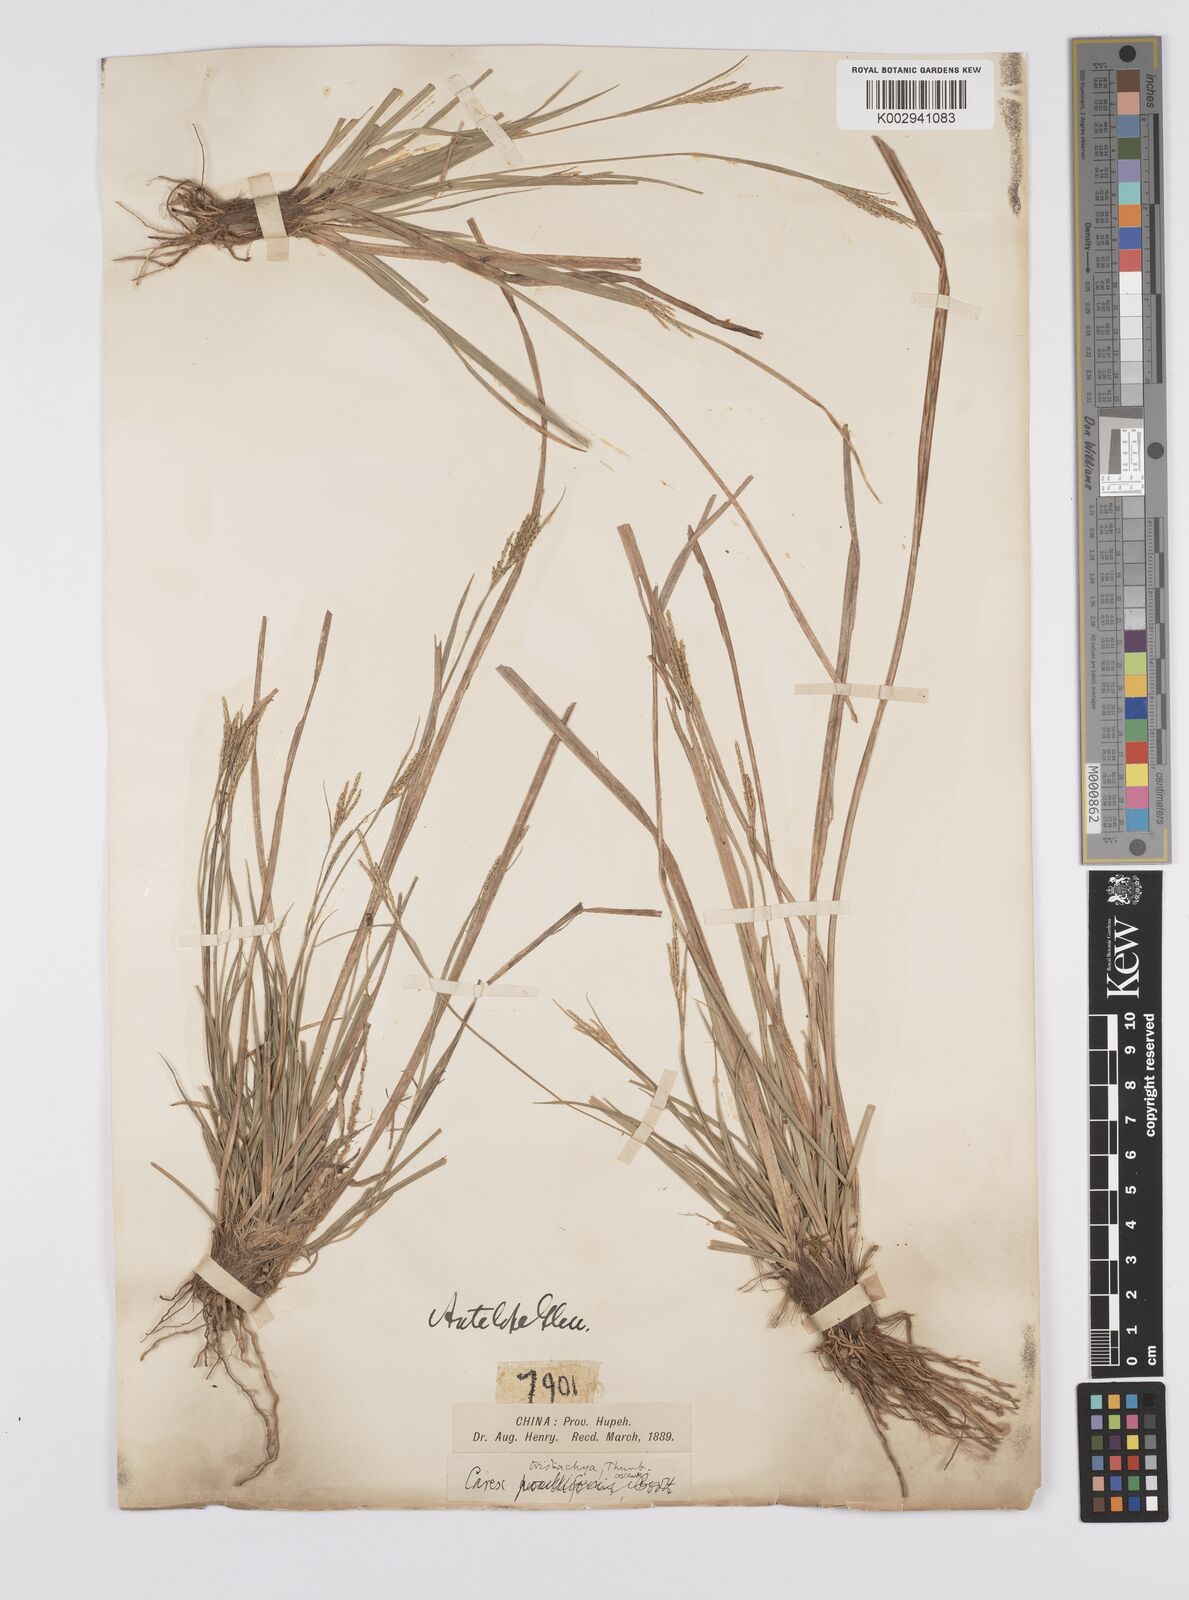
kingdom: Plantae
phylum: Tracheophyta
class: Liliopsida
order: Poales
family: Cyperaceae
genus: Carex
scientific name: Carex tristachya
